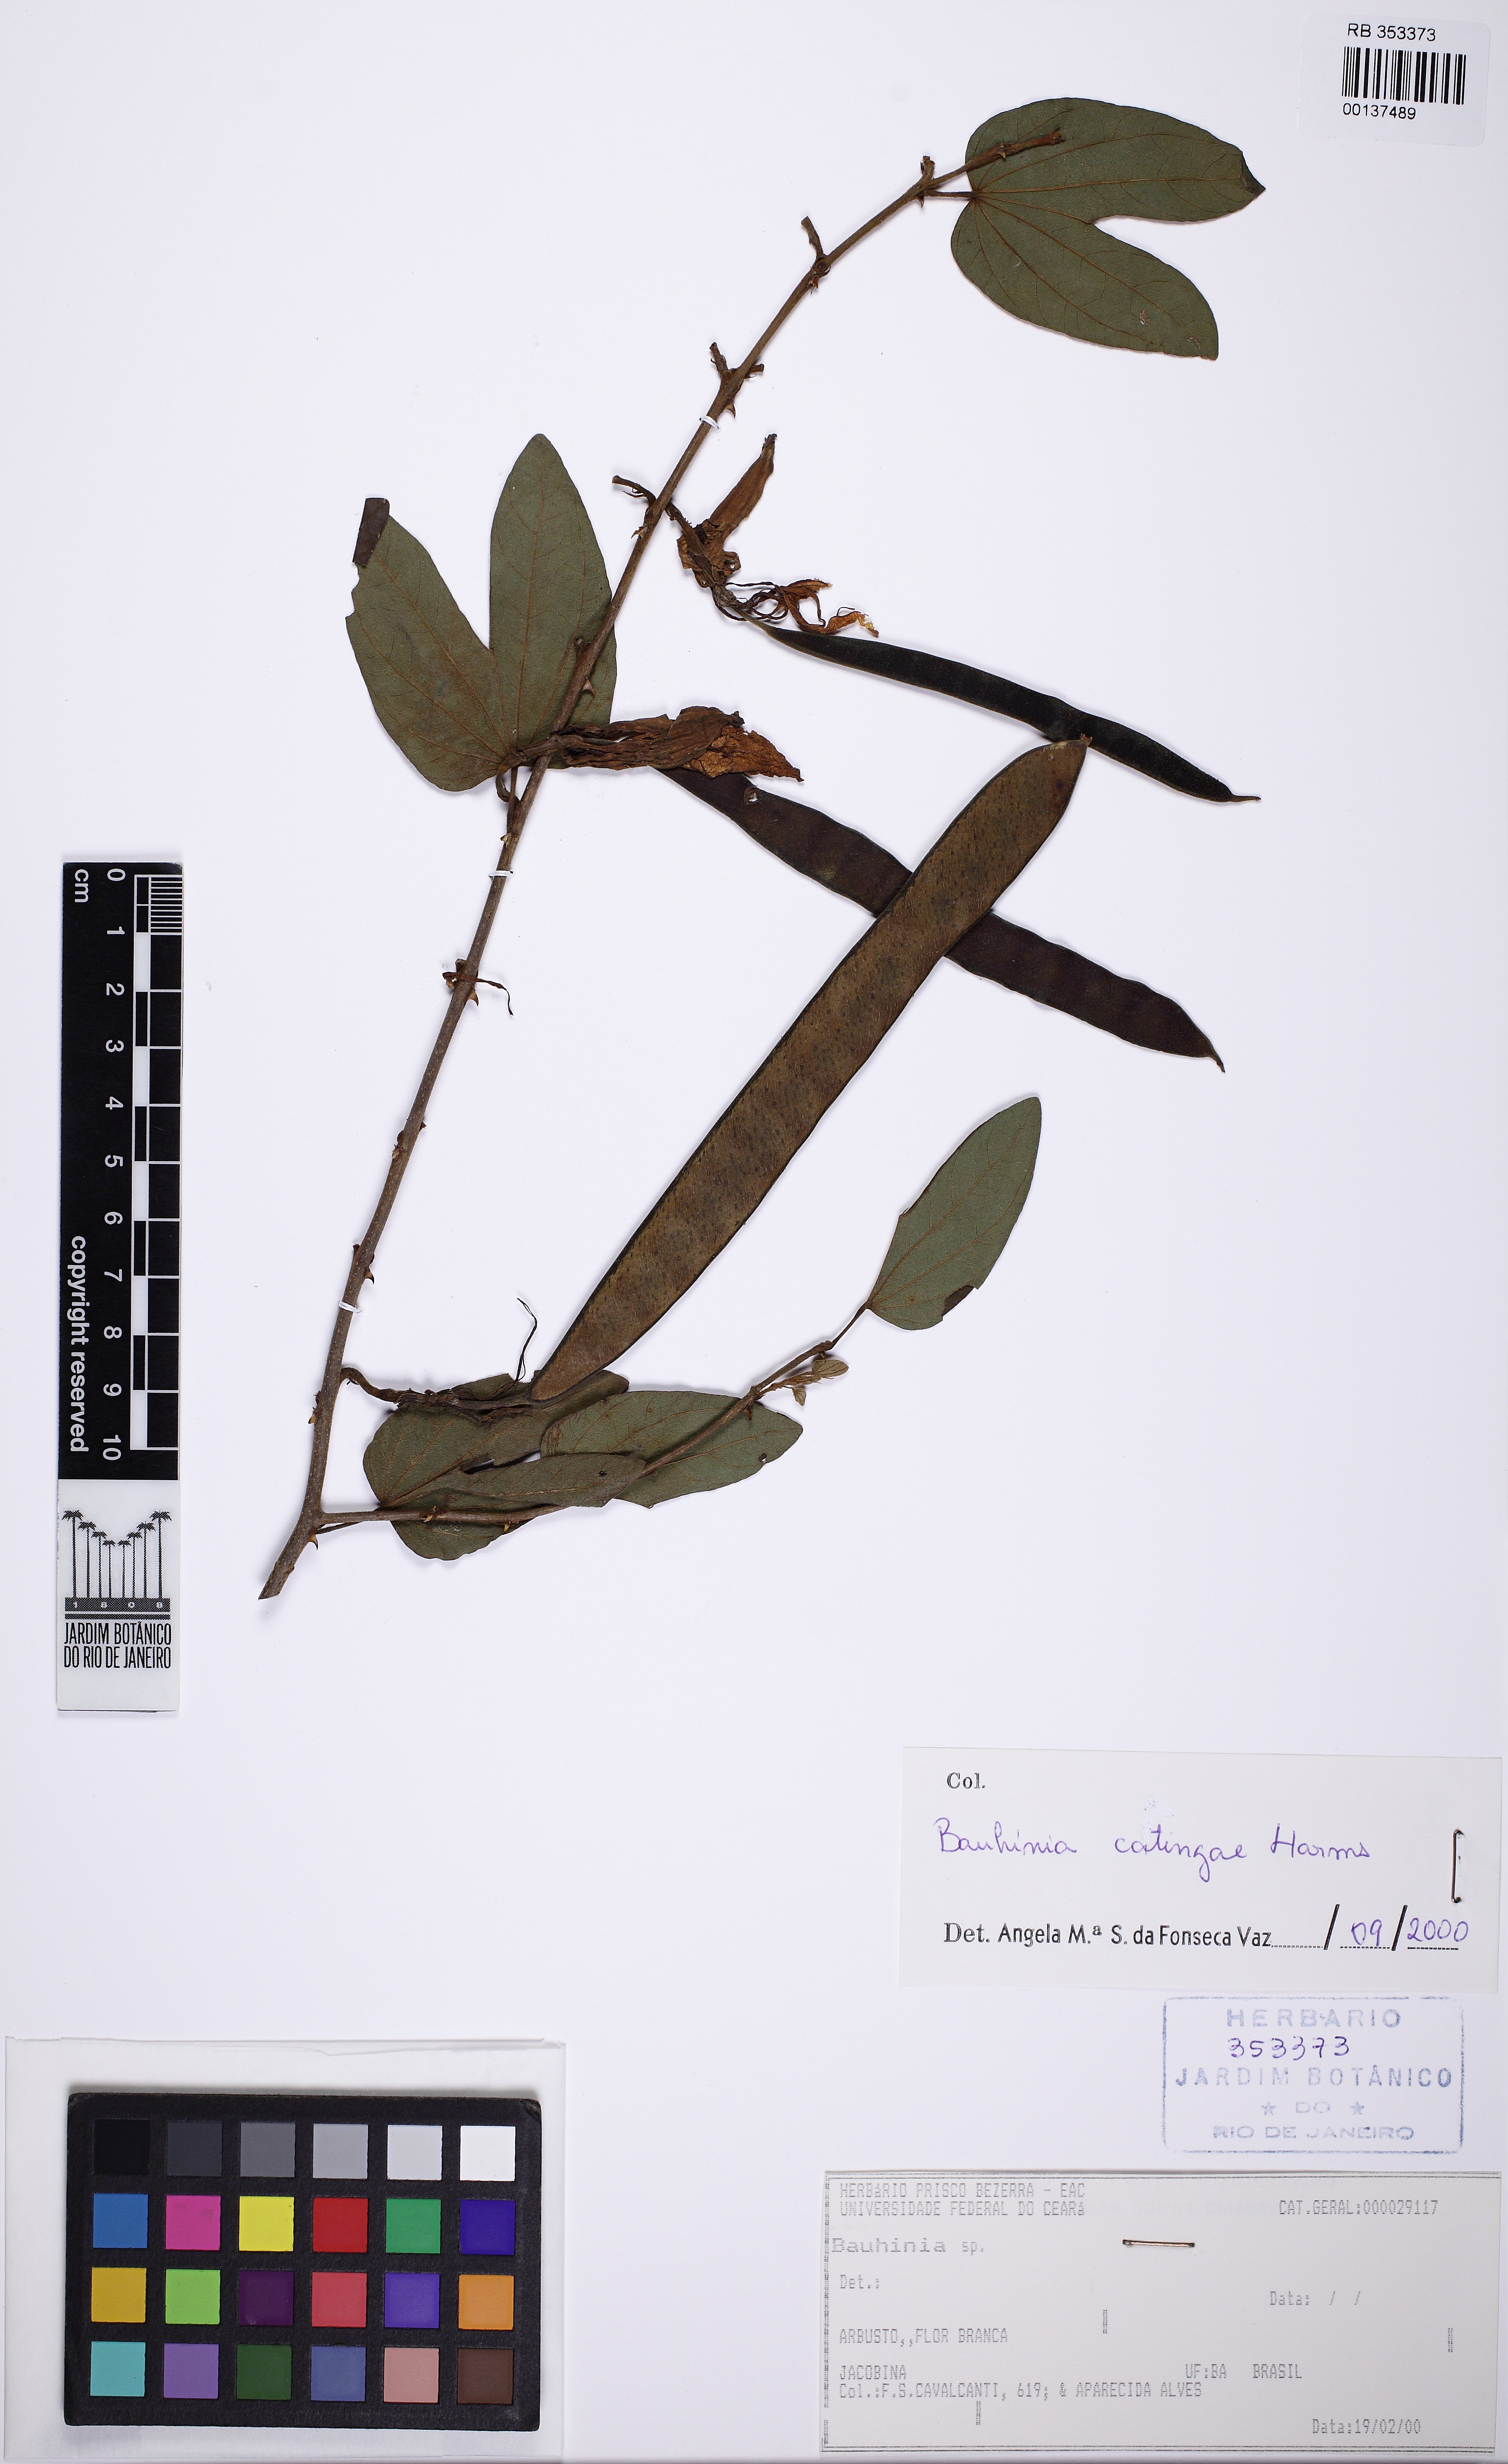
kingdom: Plantae
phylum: Tracheophyta
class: Magnoliopsida
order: Fabales
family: Fabaceae
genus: Bauhinia
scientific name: Bauhinia catingae
